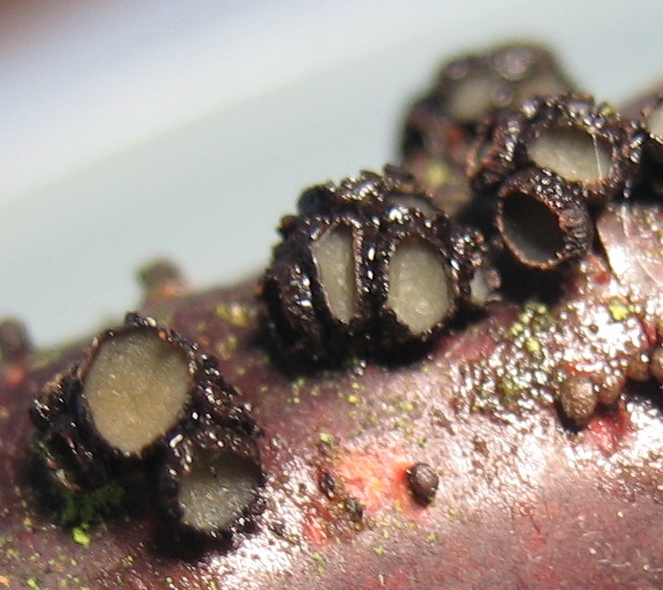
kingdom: Fungi
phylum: Ascomycota
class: Leotiomycetes
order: Helotiales
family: Godroniaceae
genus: Godronia
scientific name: Godronia ribis
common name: ribs-urneskive
